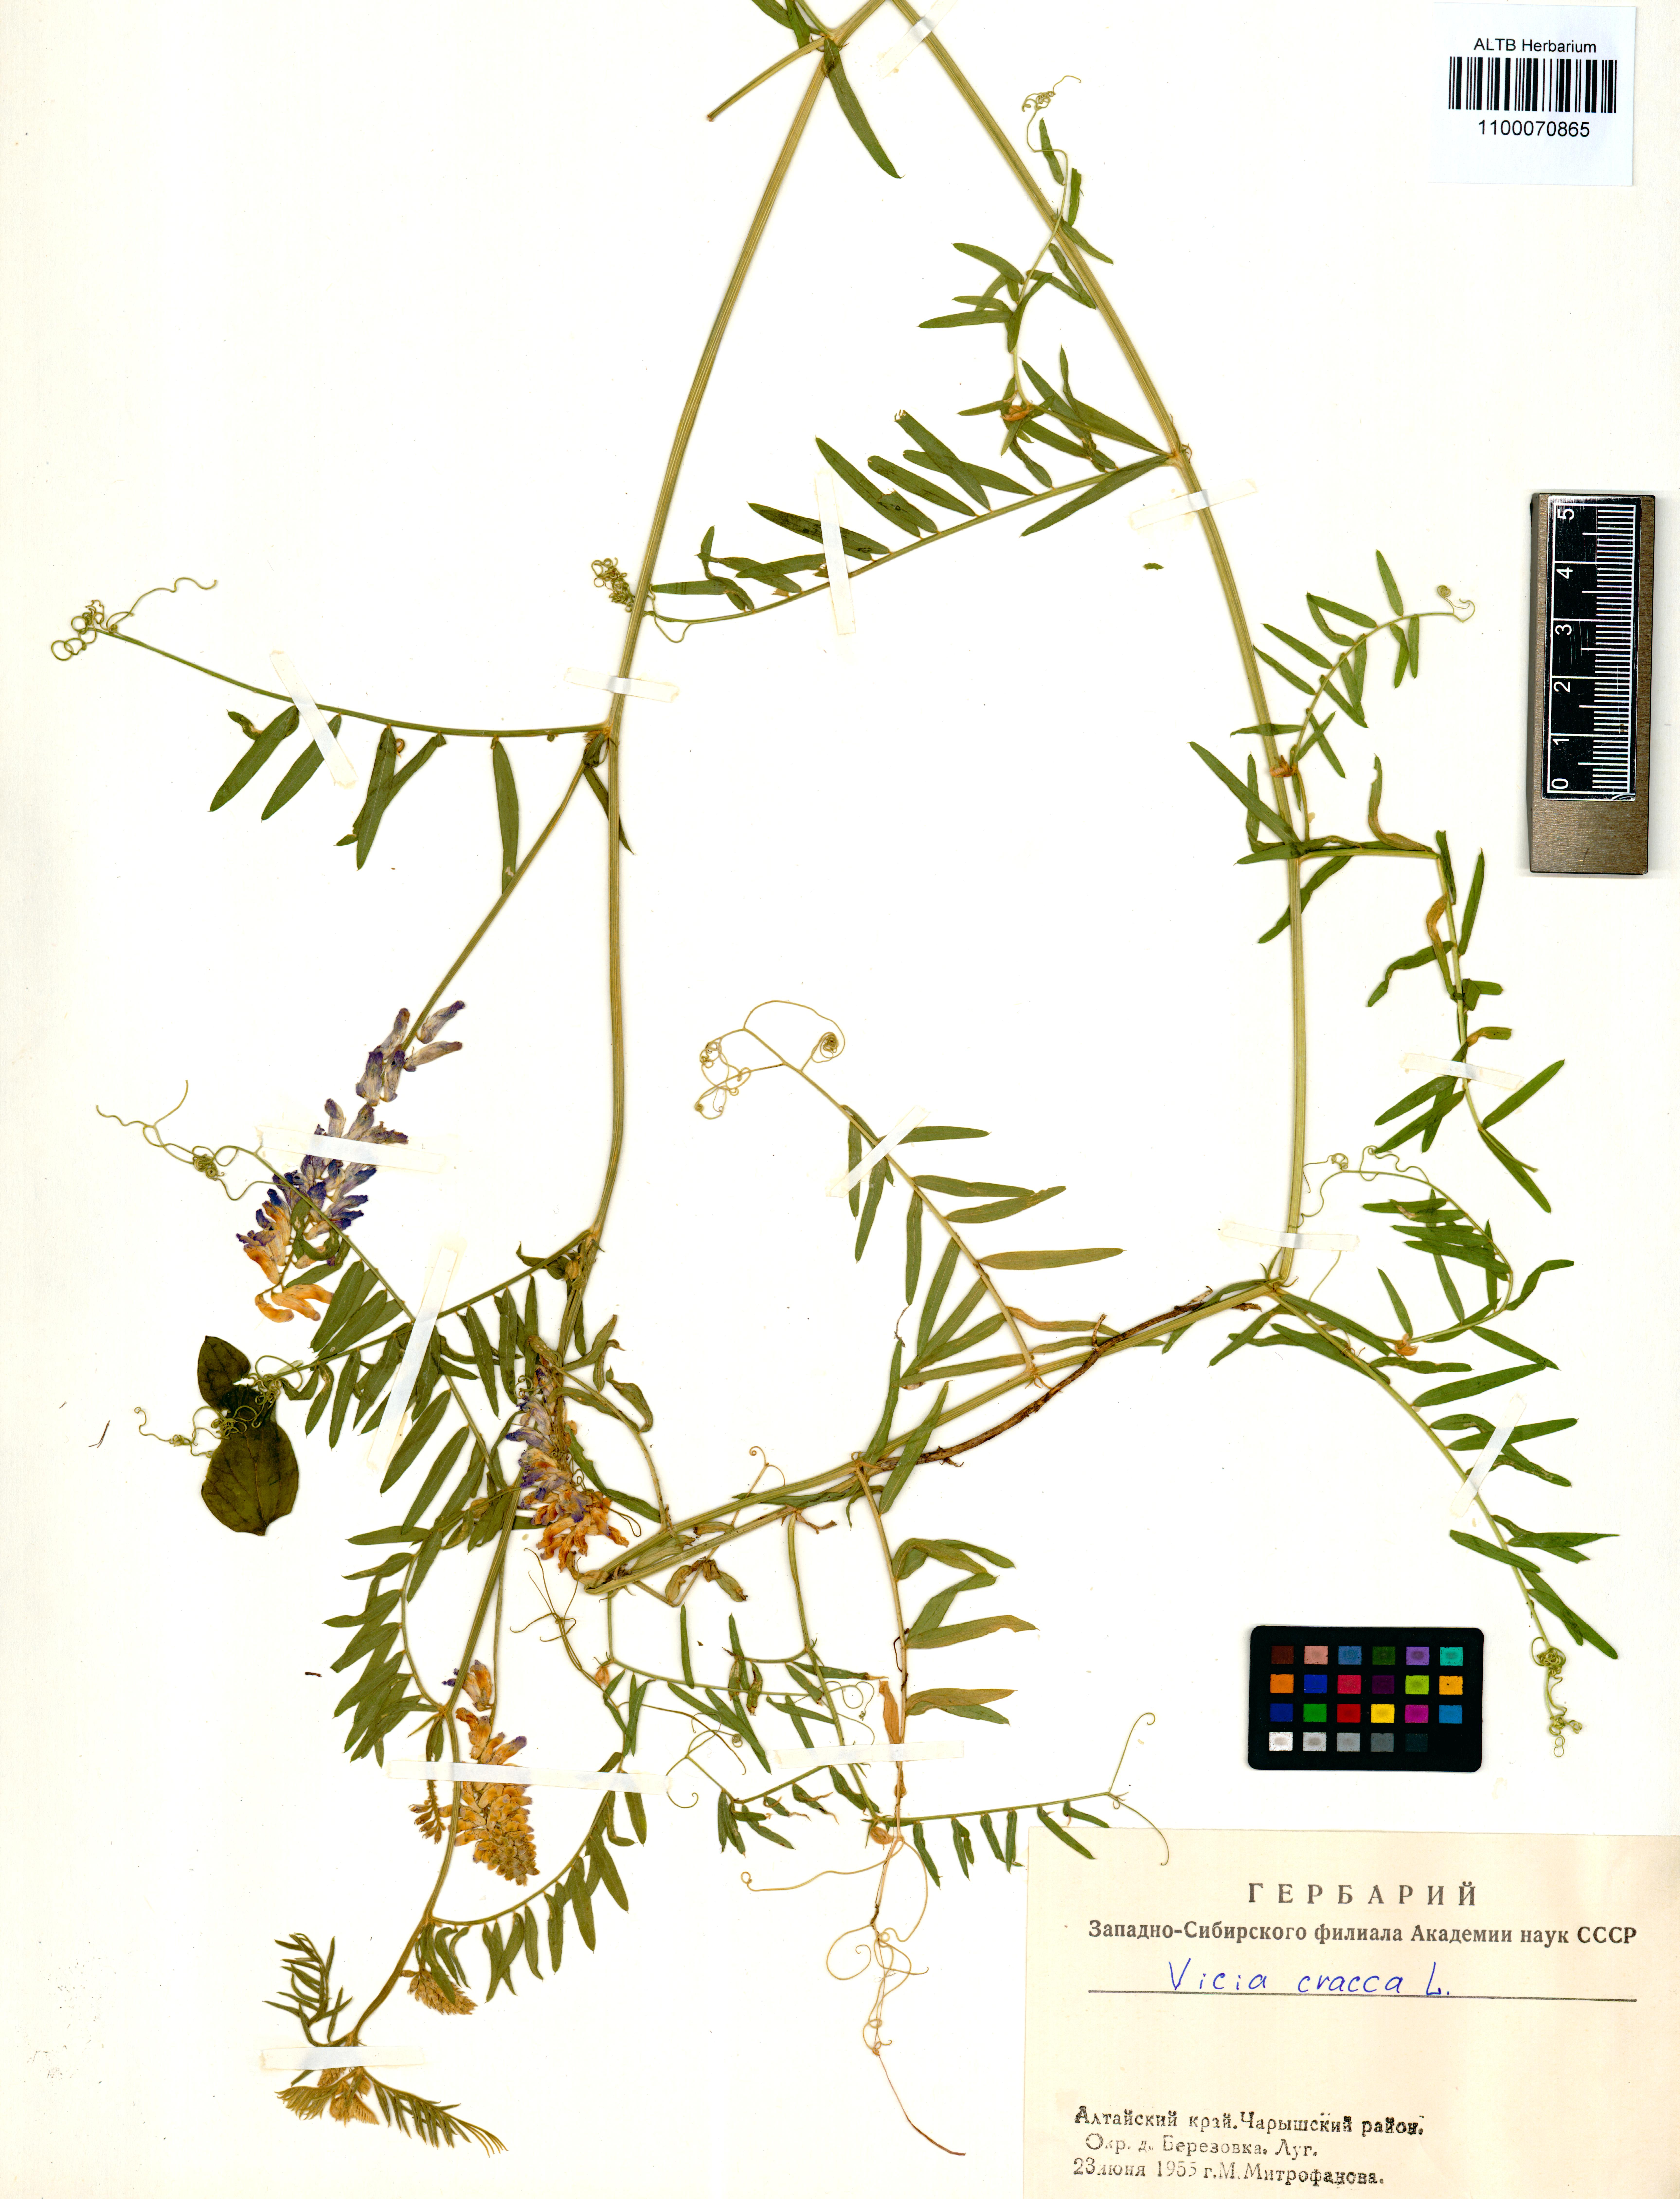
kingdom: Plantae
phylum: Tracheophyta
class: Magnoliopsida
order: Fabales
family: Fabaceae
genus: Vicia
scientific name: Vicia cracca
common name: Bird vetch
